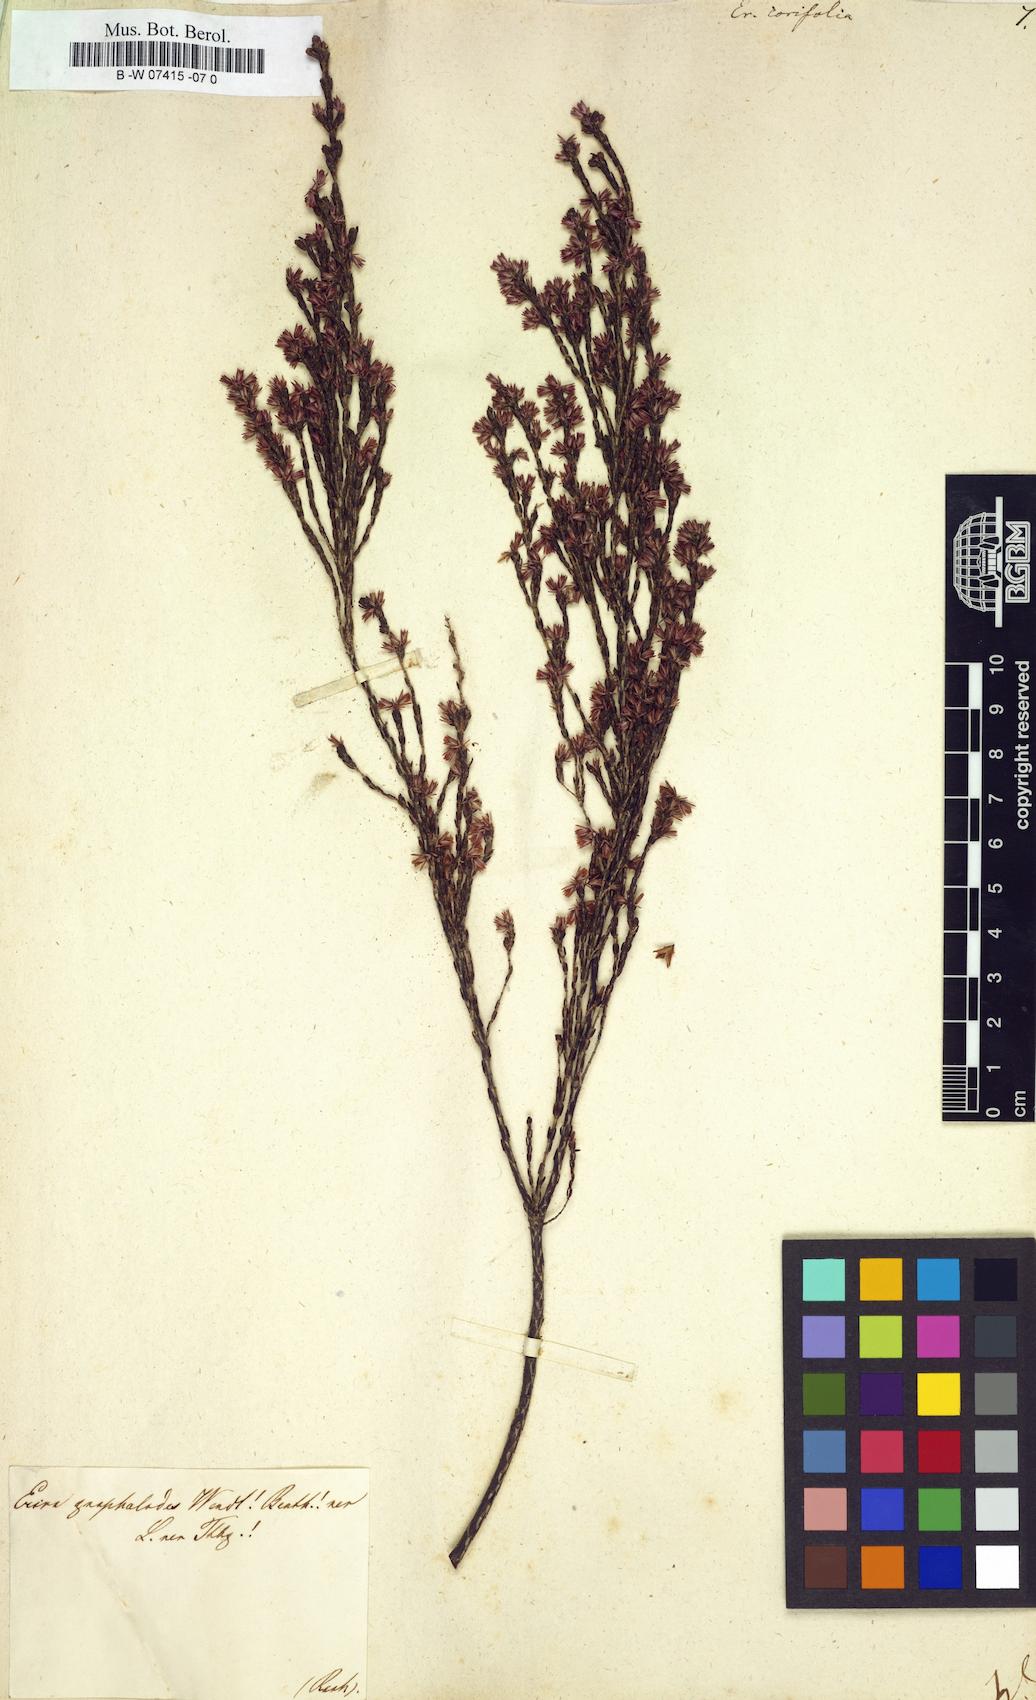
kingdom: Plantae
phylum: Tracheophyta
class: Magnoliopsida
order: Ericales
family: Ericaceae
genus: Erica
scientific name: Erica corifolia
